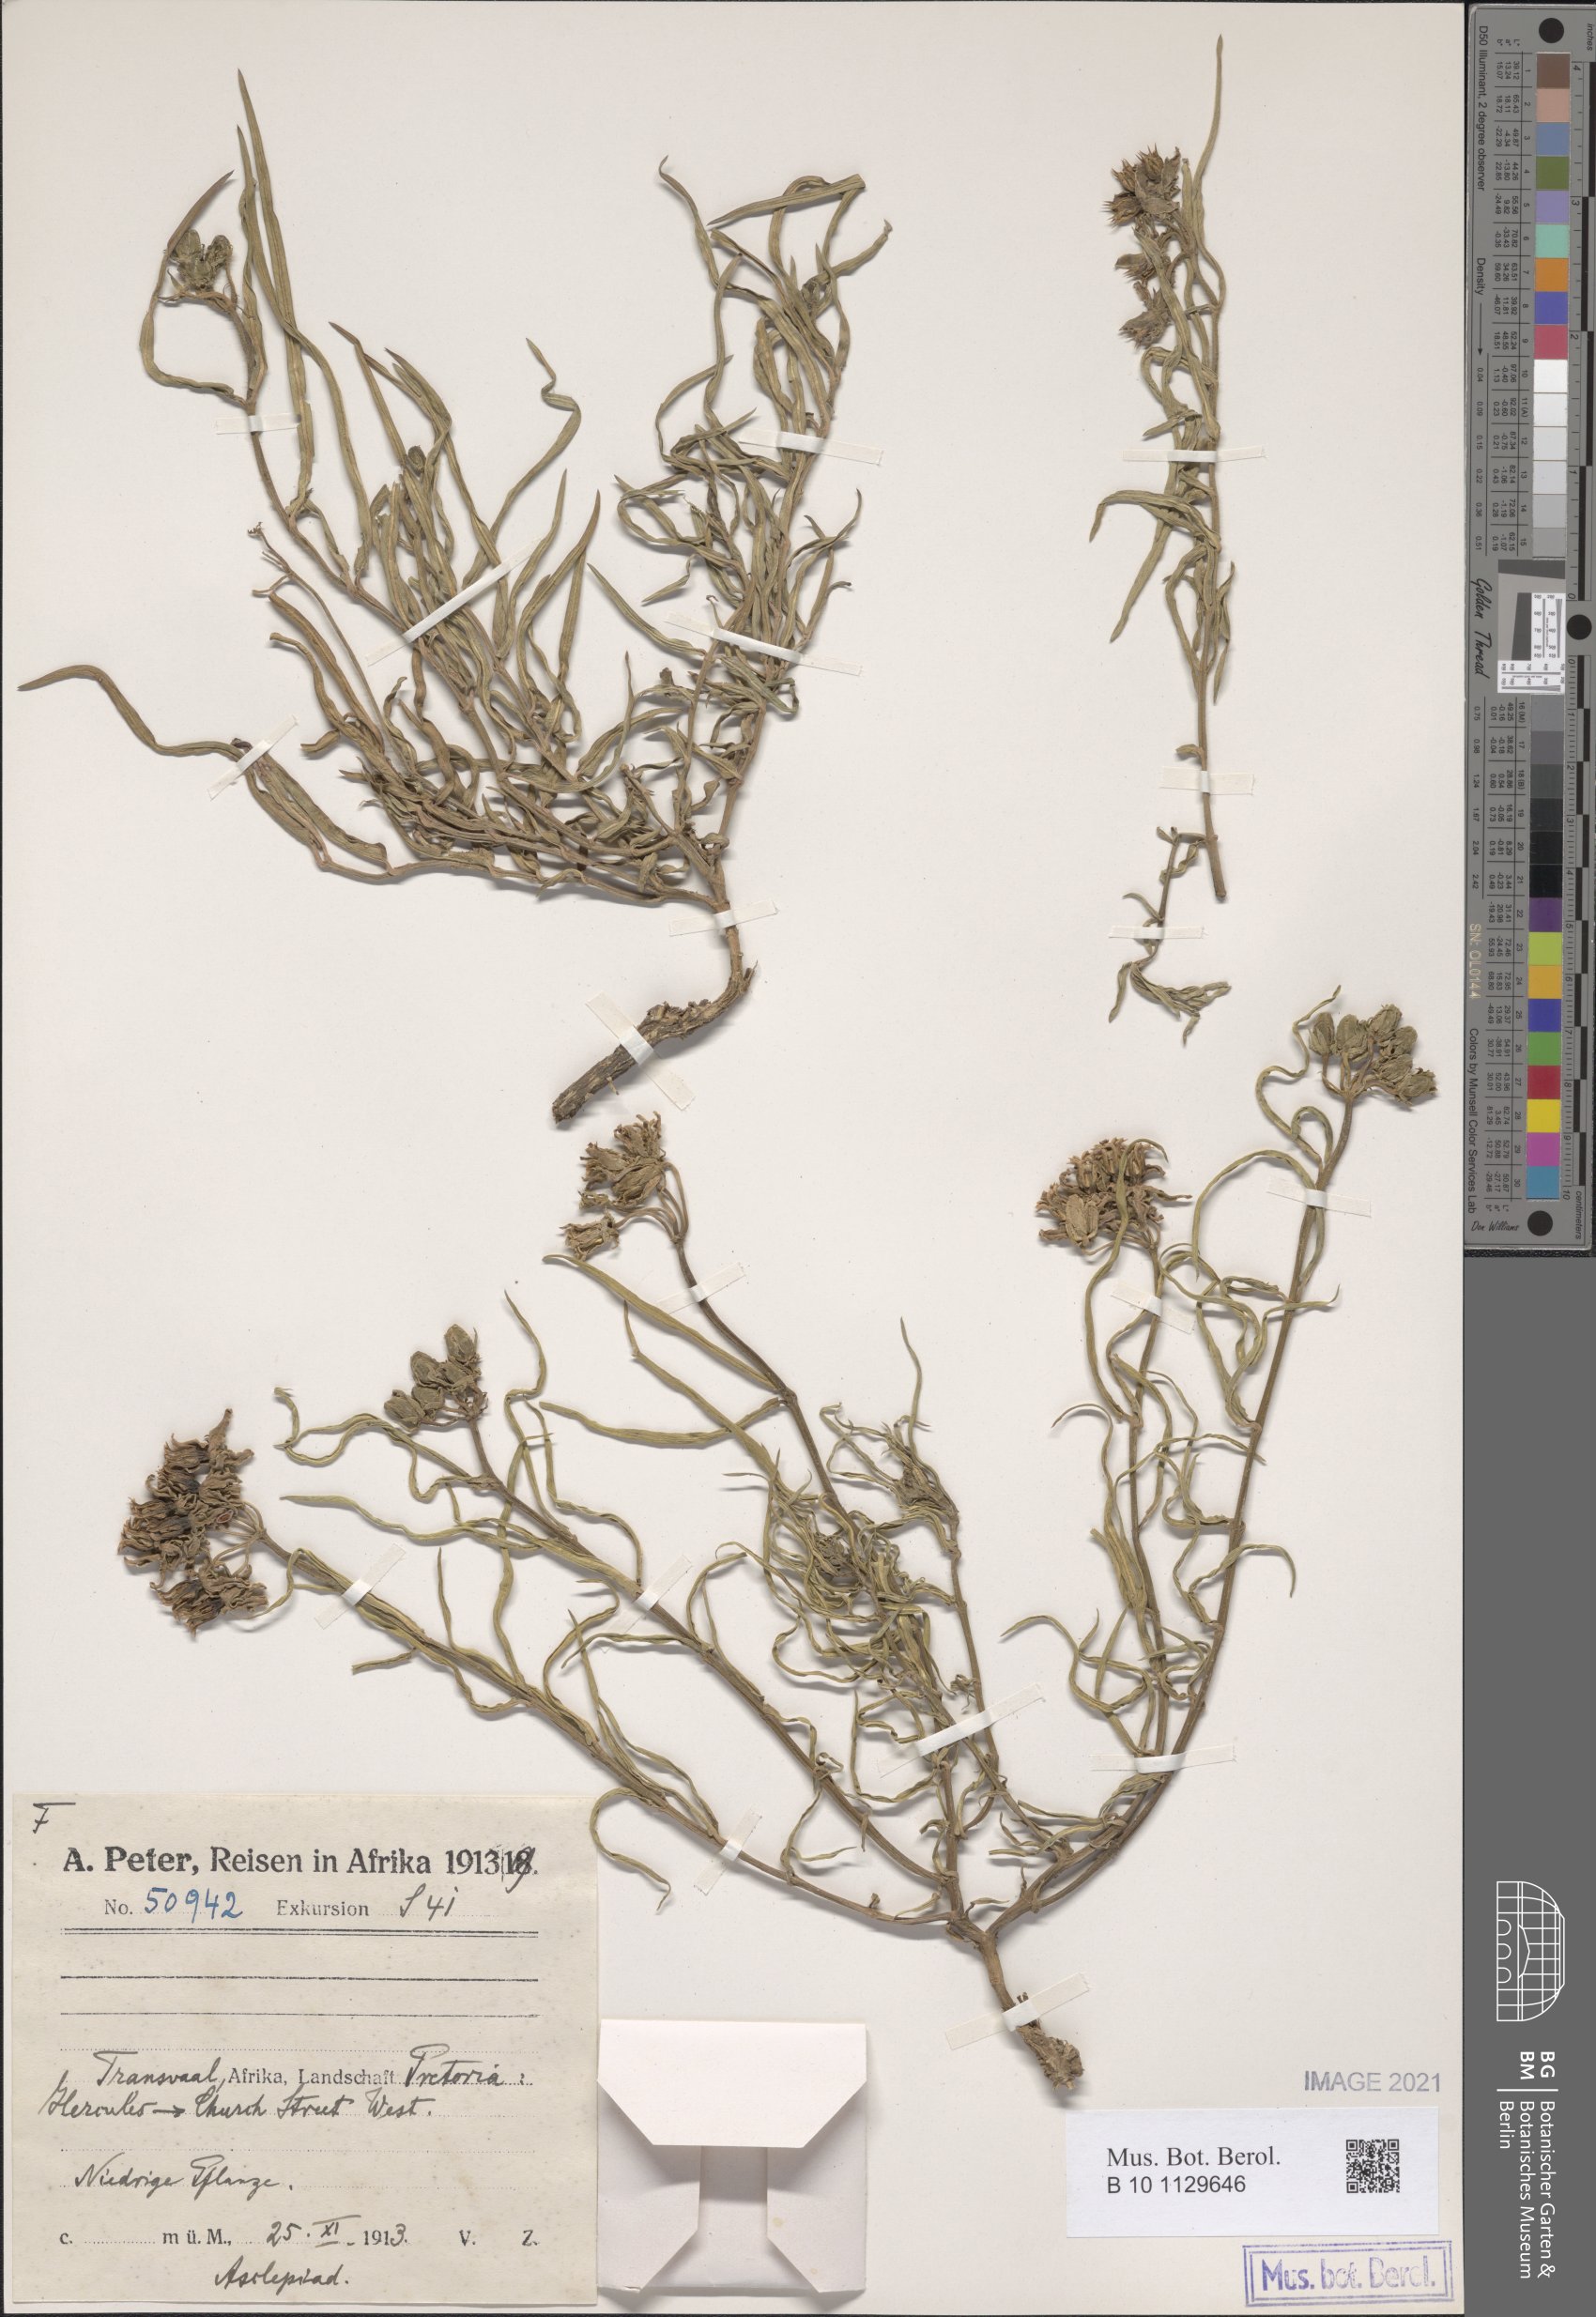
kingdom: Plantae
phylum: Tracheophyta
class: Magnoliopsida
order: Gentianales
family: Apocynaceae
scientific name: Apocynaceae
